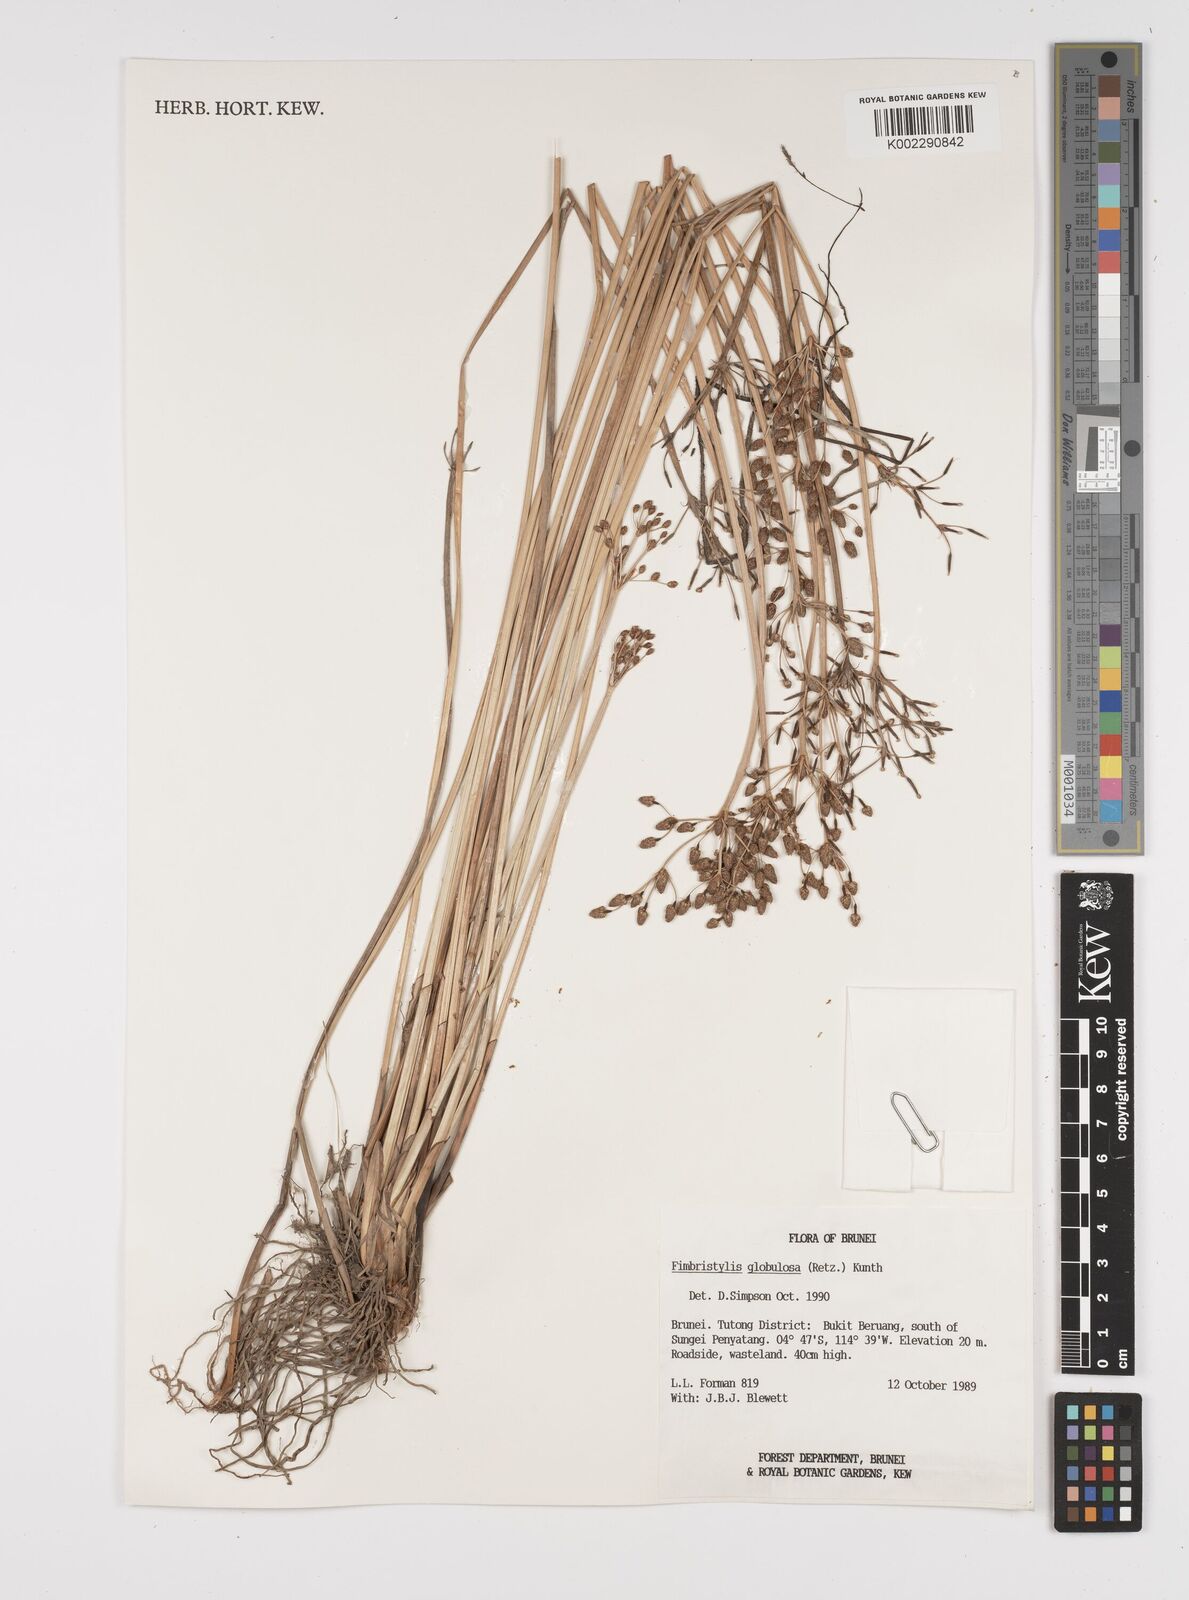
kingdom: Plantae
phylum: Tracheophyta
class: Liliopsida
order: Poales
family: Cyperaceae
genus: Fimbristylis
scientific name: Fimbristylis umbellaris
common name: Globular fimbristylis
